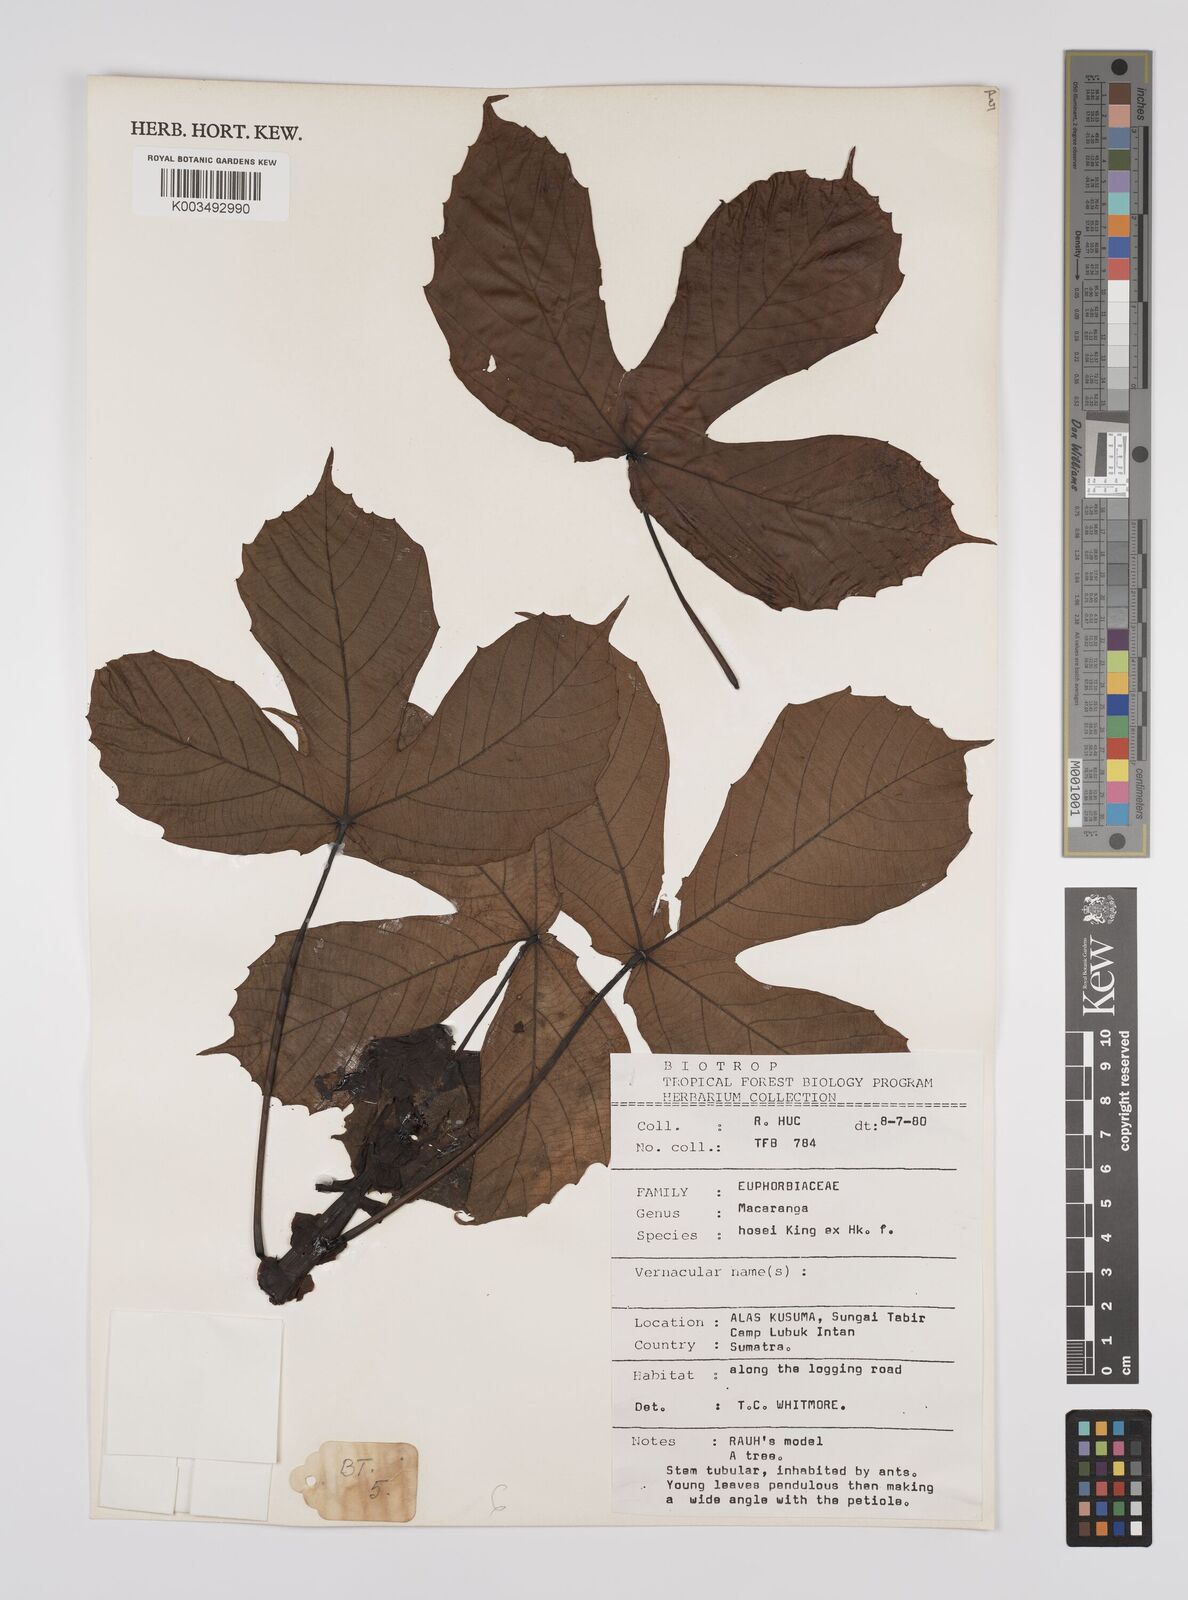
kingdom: Plantae
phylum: Tracheophyta
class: Magnoliopsida
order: Malpighiales
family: Euphorbiaceae
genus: Macaranga
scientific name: Macaranga hosei
